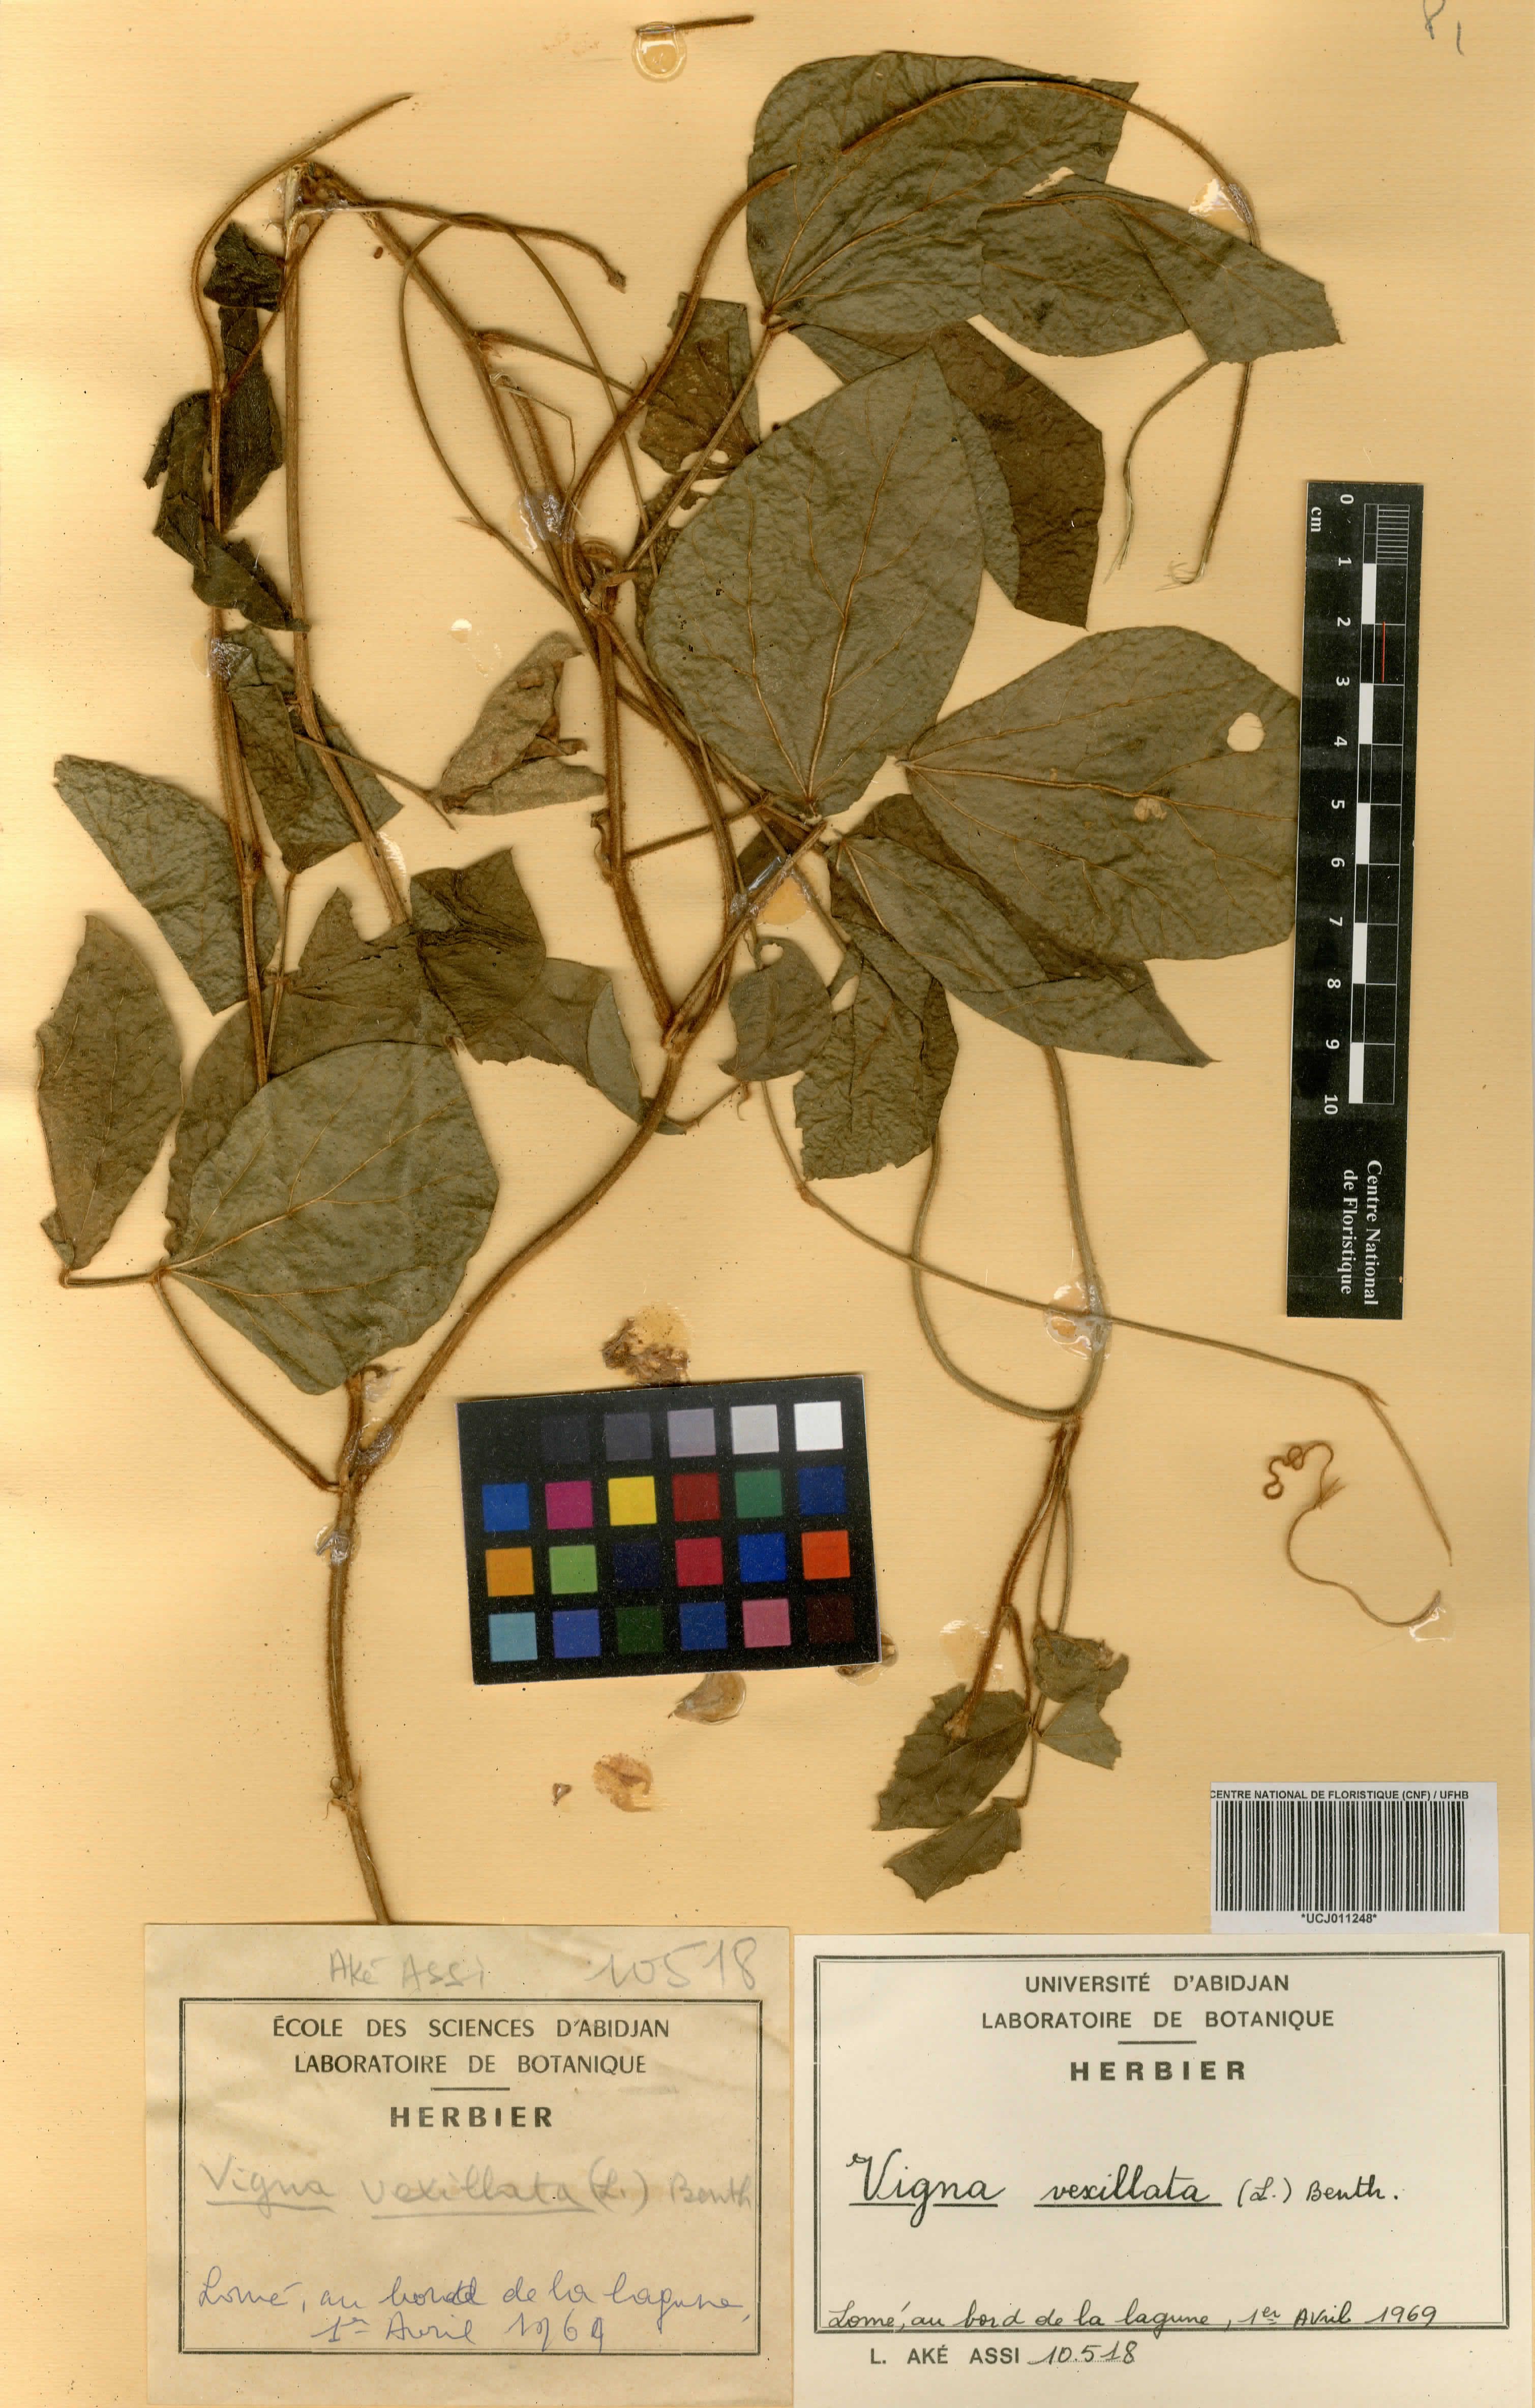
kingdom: Plantae
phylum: Tracheophyta
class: Magnoliopsida
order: Fabales
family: Fabaceae
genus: Vigna
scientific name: Vigna vexillata
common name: Zombi pea
